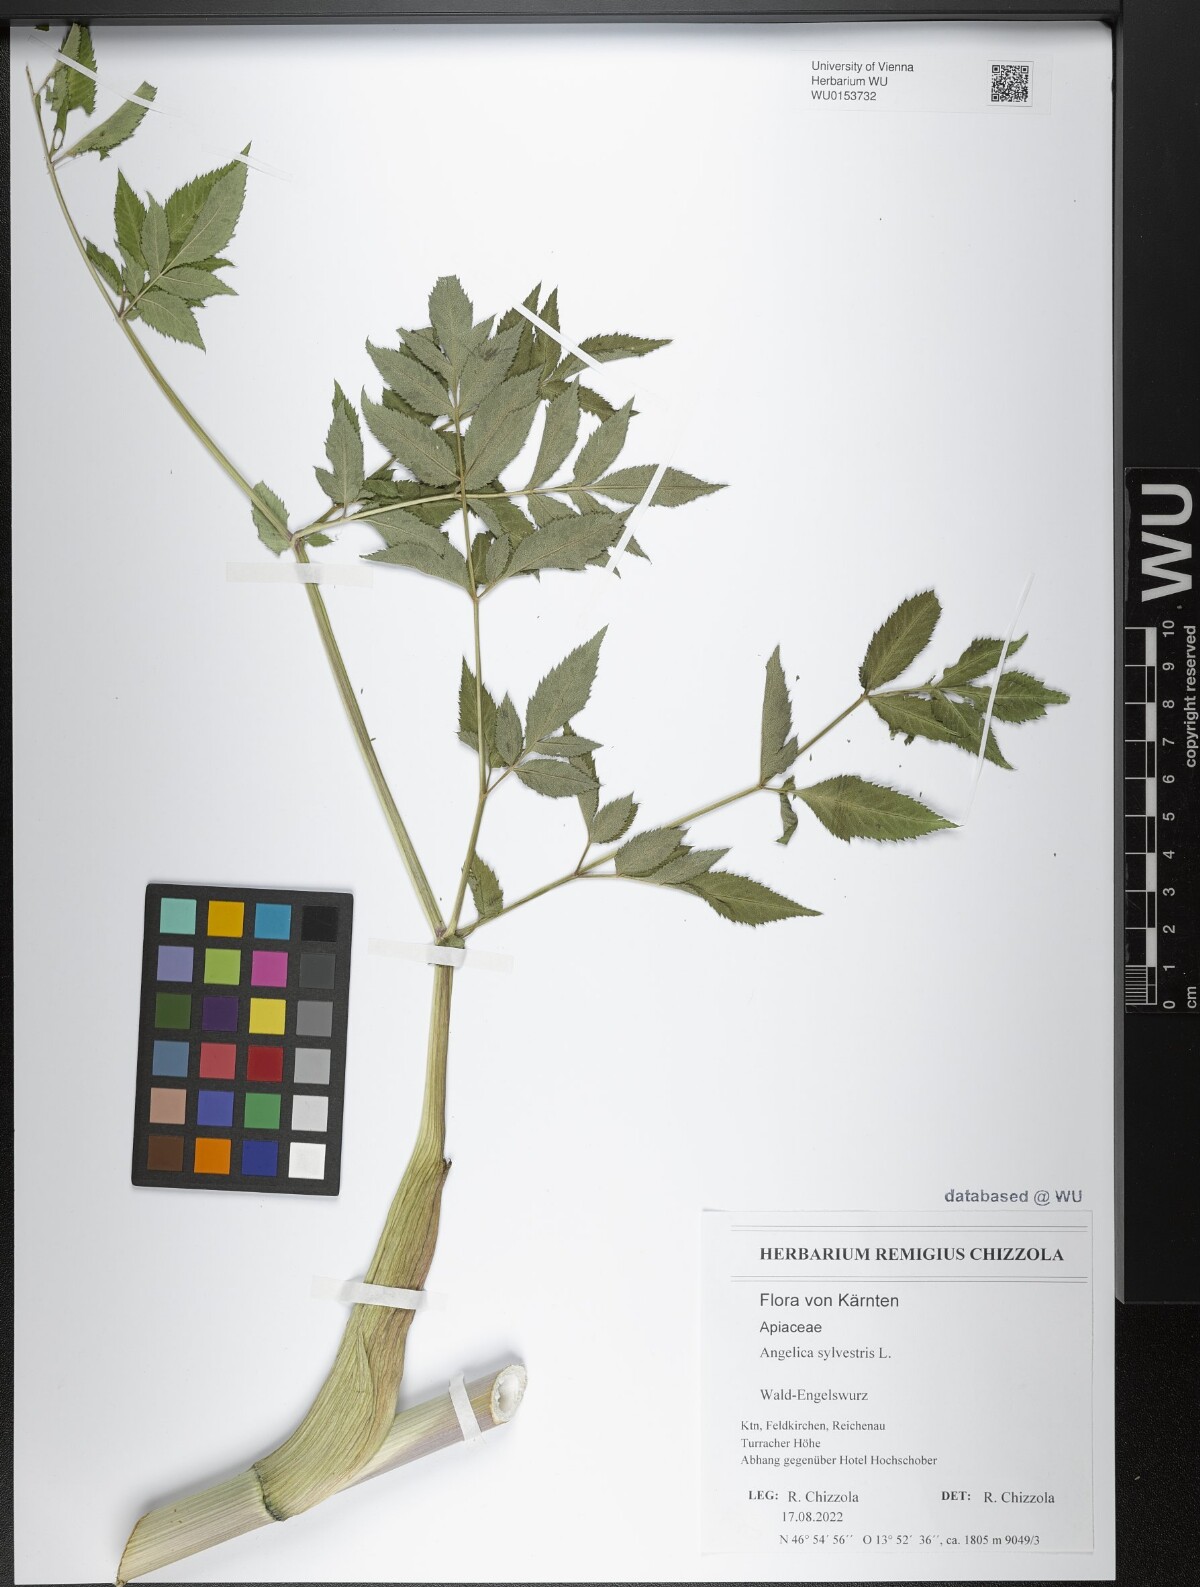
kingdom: Plantae
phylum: Tracheophyta
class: Magnoliopsida
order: Apiales
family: Apiaceae
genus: Angelica
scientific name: Angelica sylvestris
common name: Wild angelica
